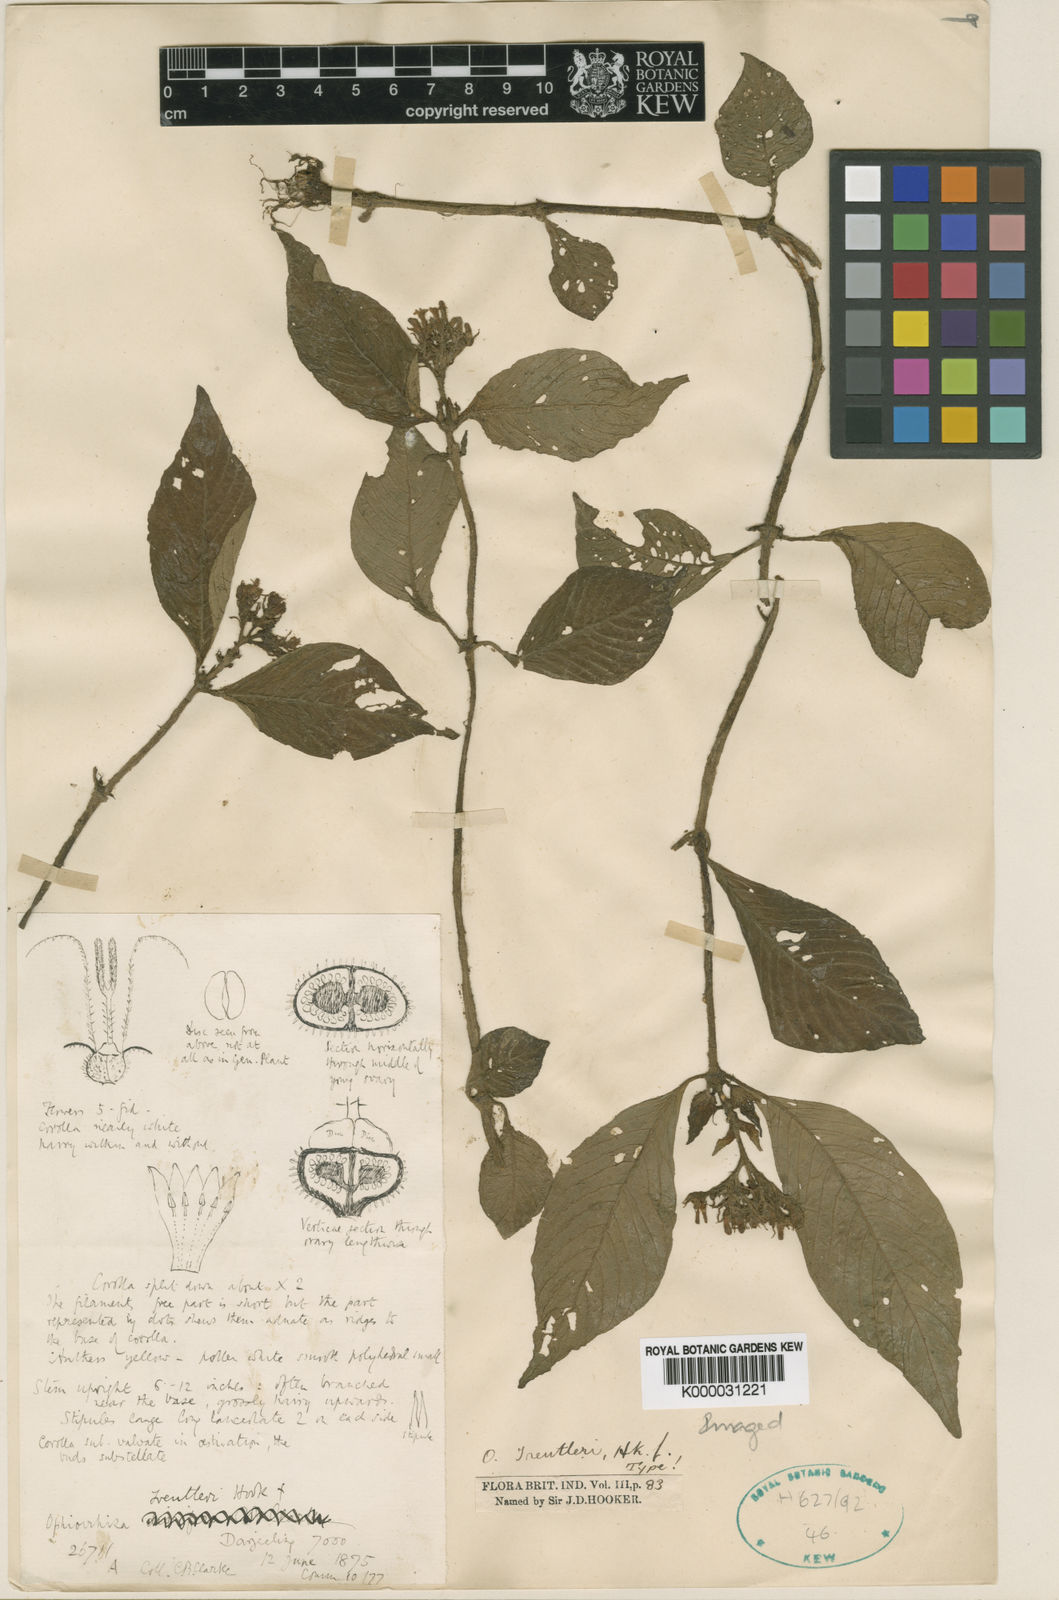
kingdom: Plantae
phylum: Tracheophyta
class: Magnoliopsida
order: Gentianales
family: Rubiaceae
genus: Ophiorrhiza
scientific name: Ophiorrhiza treutleri
